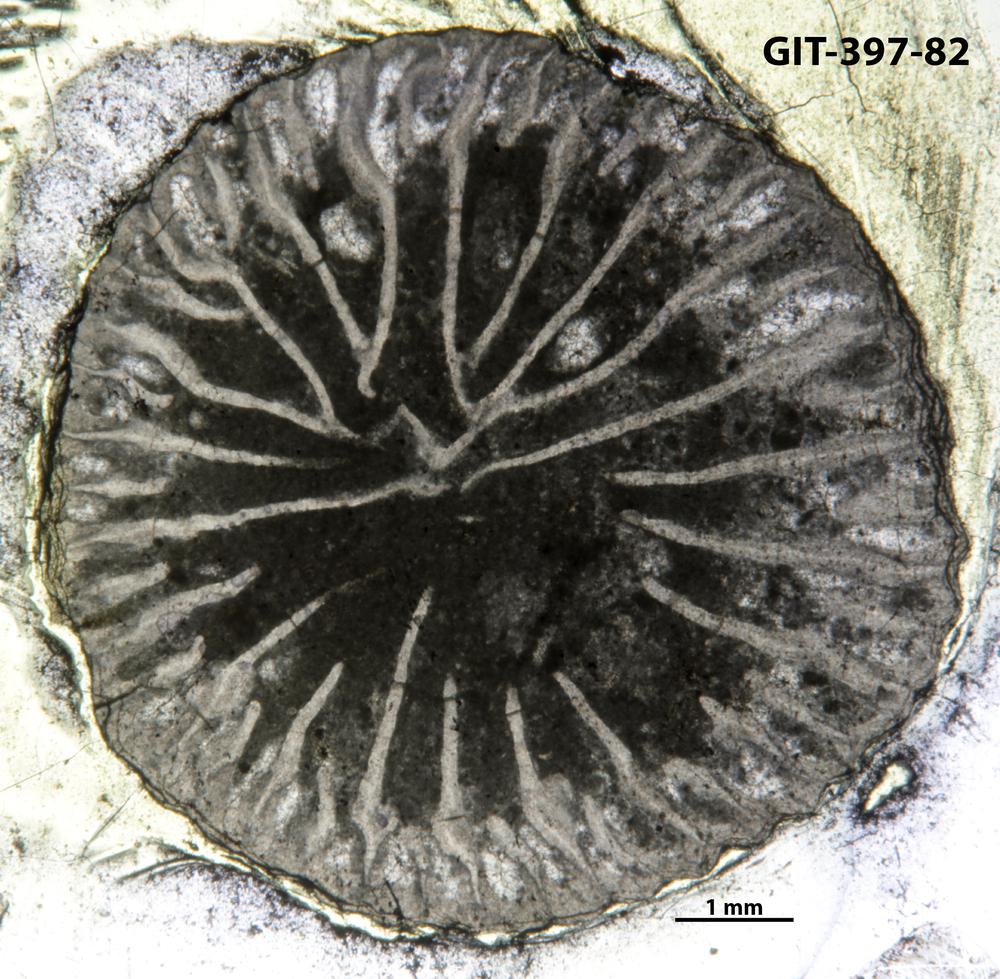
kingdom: Animalia
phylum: Cnidaria
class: Anthozoa
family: Streptelasmatidae
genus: Rhegmaphyllum
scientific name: Rhegmaphyllum
